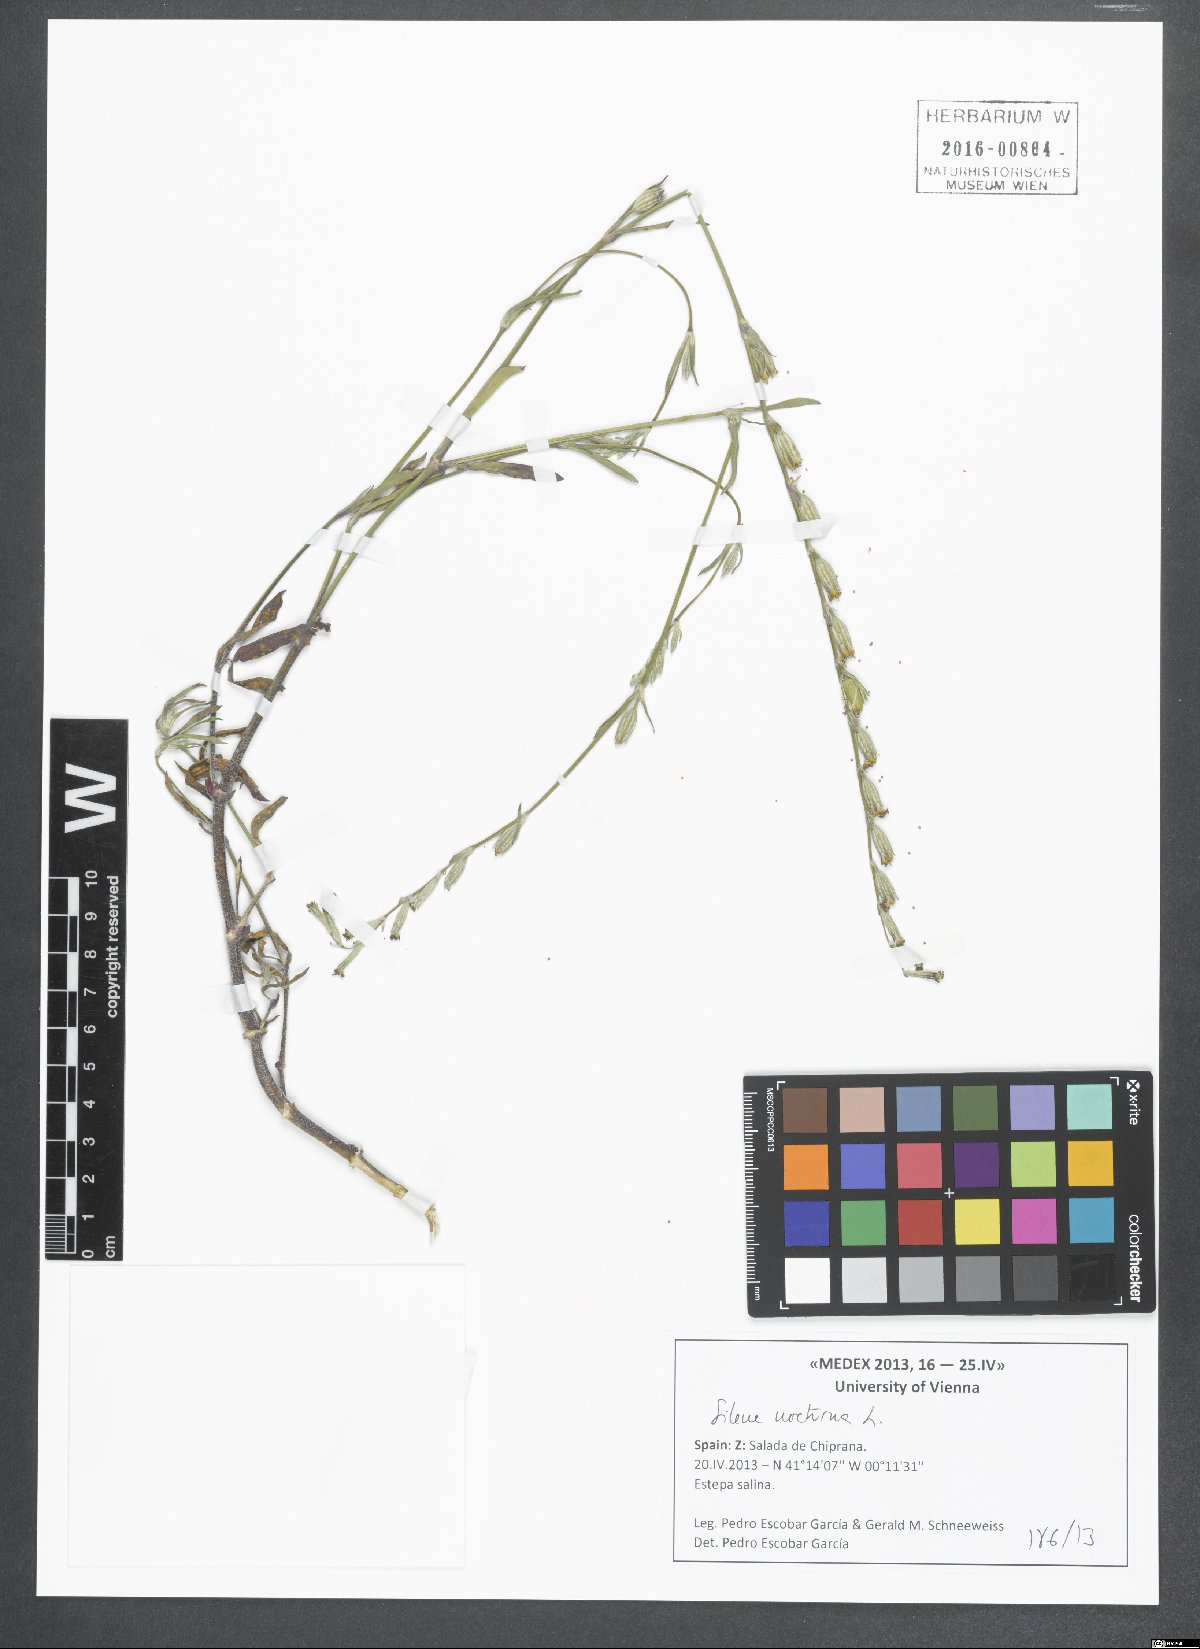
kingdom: Plantae
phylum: Tracheophyta
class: Magnoliopsida
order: Caryophyllales
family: Caryophyllaceae
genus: Silene
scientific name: Silene nocturna
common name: Mediterranean catchfly
